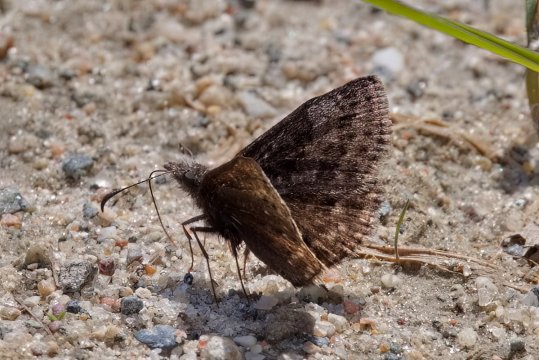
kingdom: Animalia
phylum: Arthropoda
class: Insecta
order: Lepidoptera
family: Hesperiidae
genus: Erynnis
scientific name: Erynnis icelus
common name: Dreamy Duskywing
